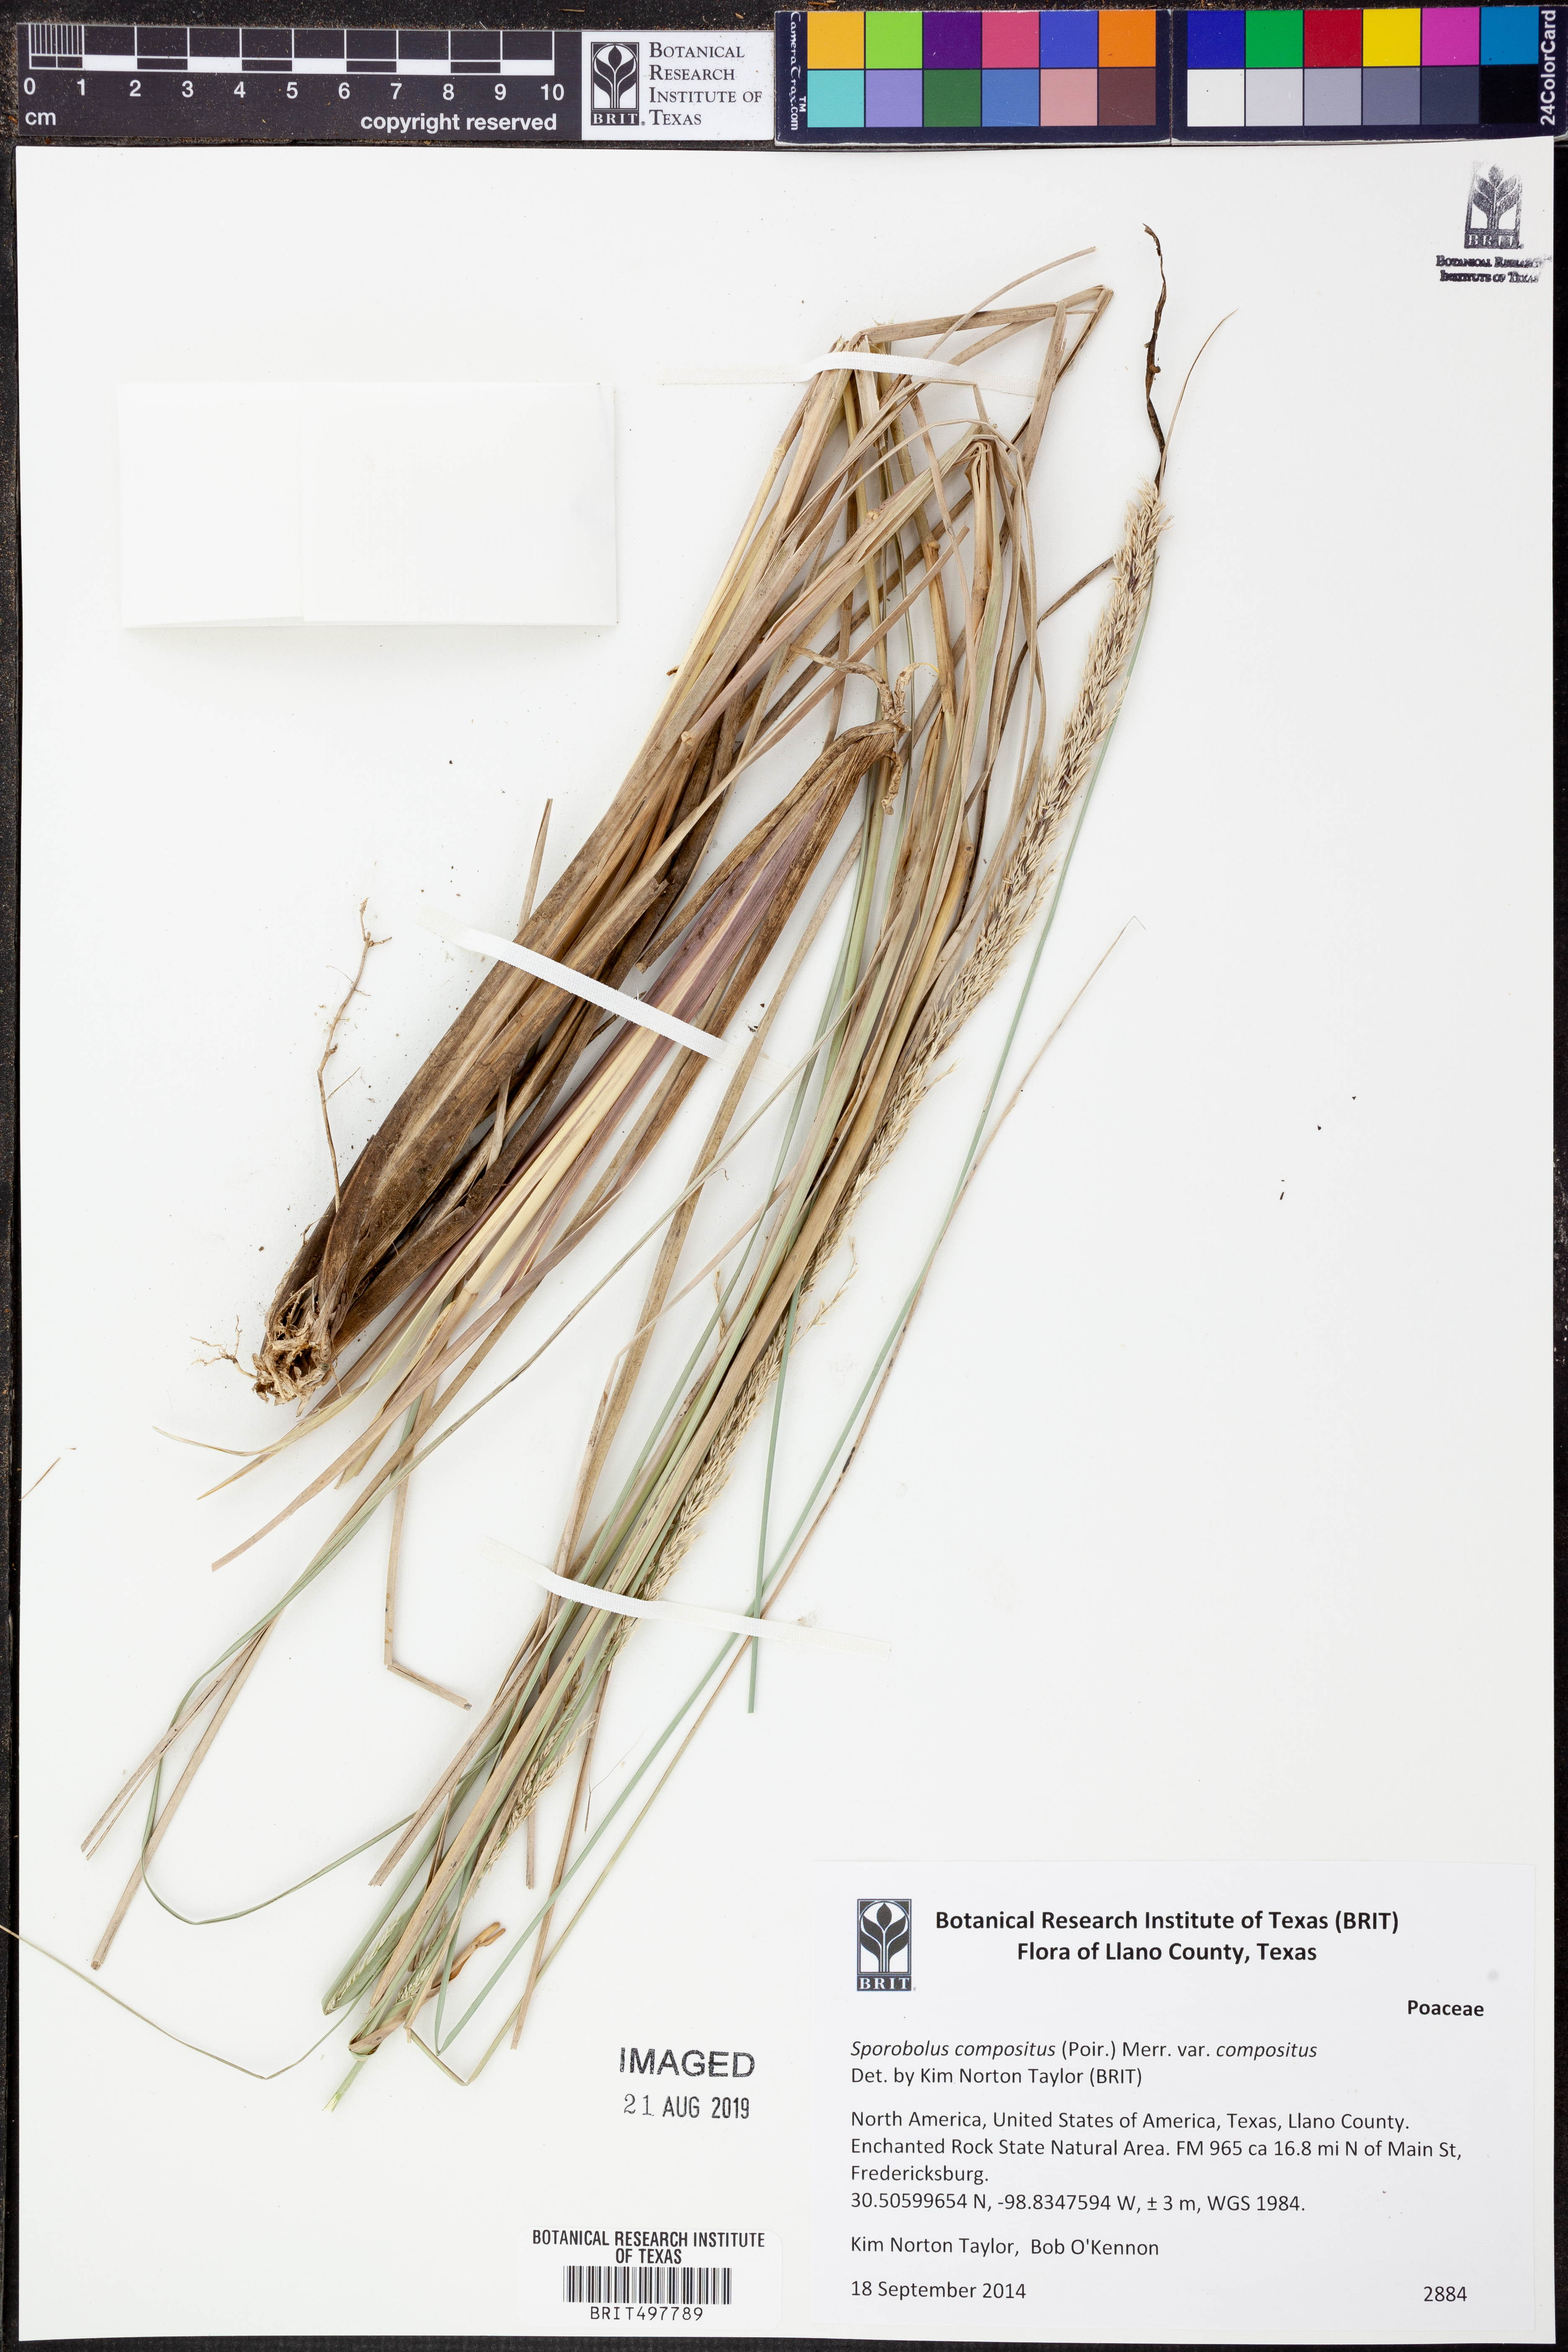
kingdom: Plantae
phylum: Tracheophyta
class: Liliopsida
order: Poales
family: Poaceae
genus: Sporobolus
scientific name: Sporobolus compositus
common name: Rough dropseed
